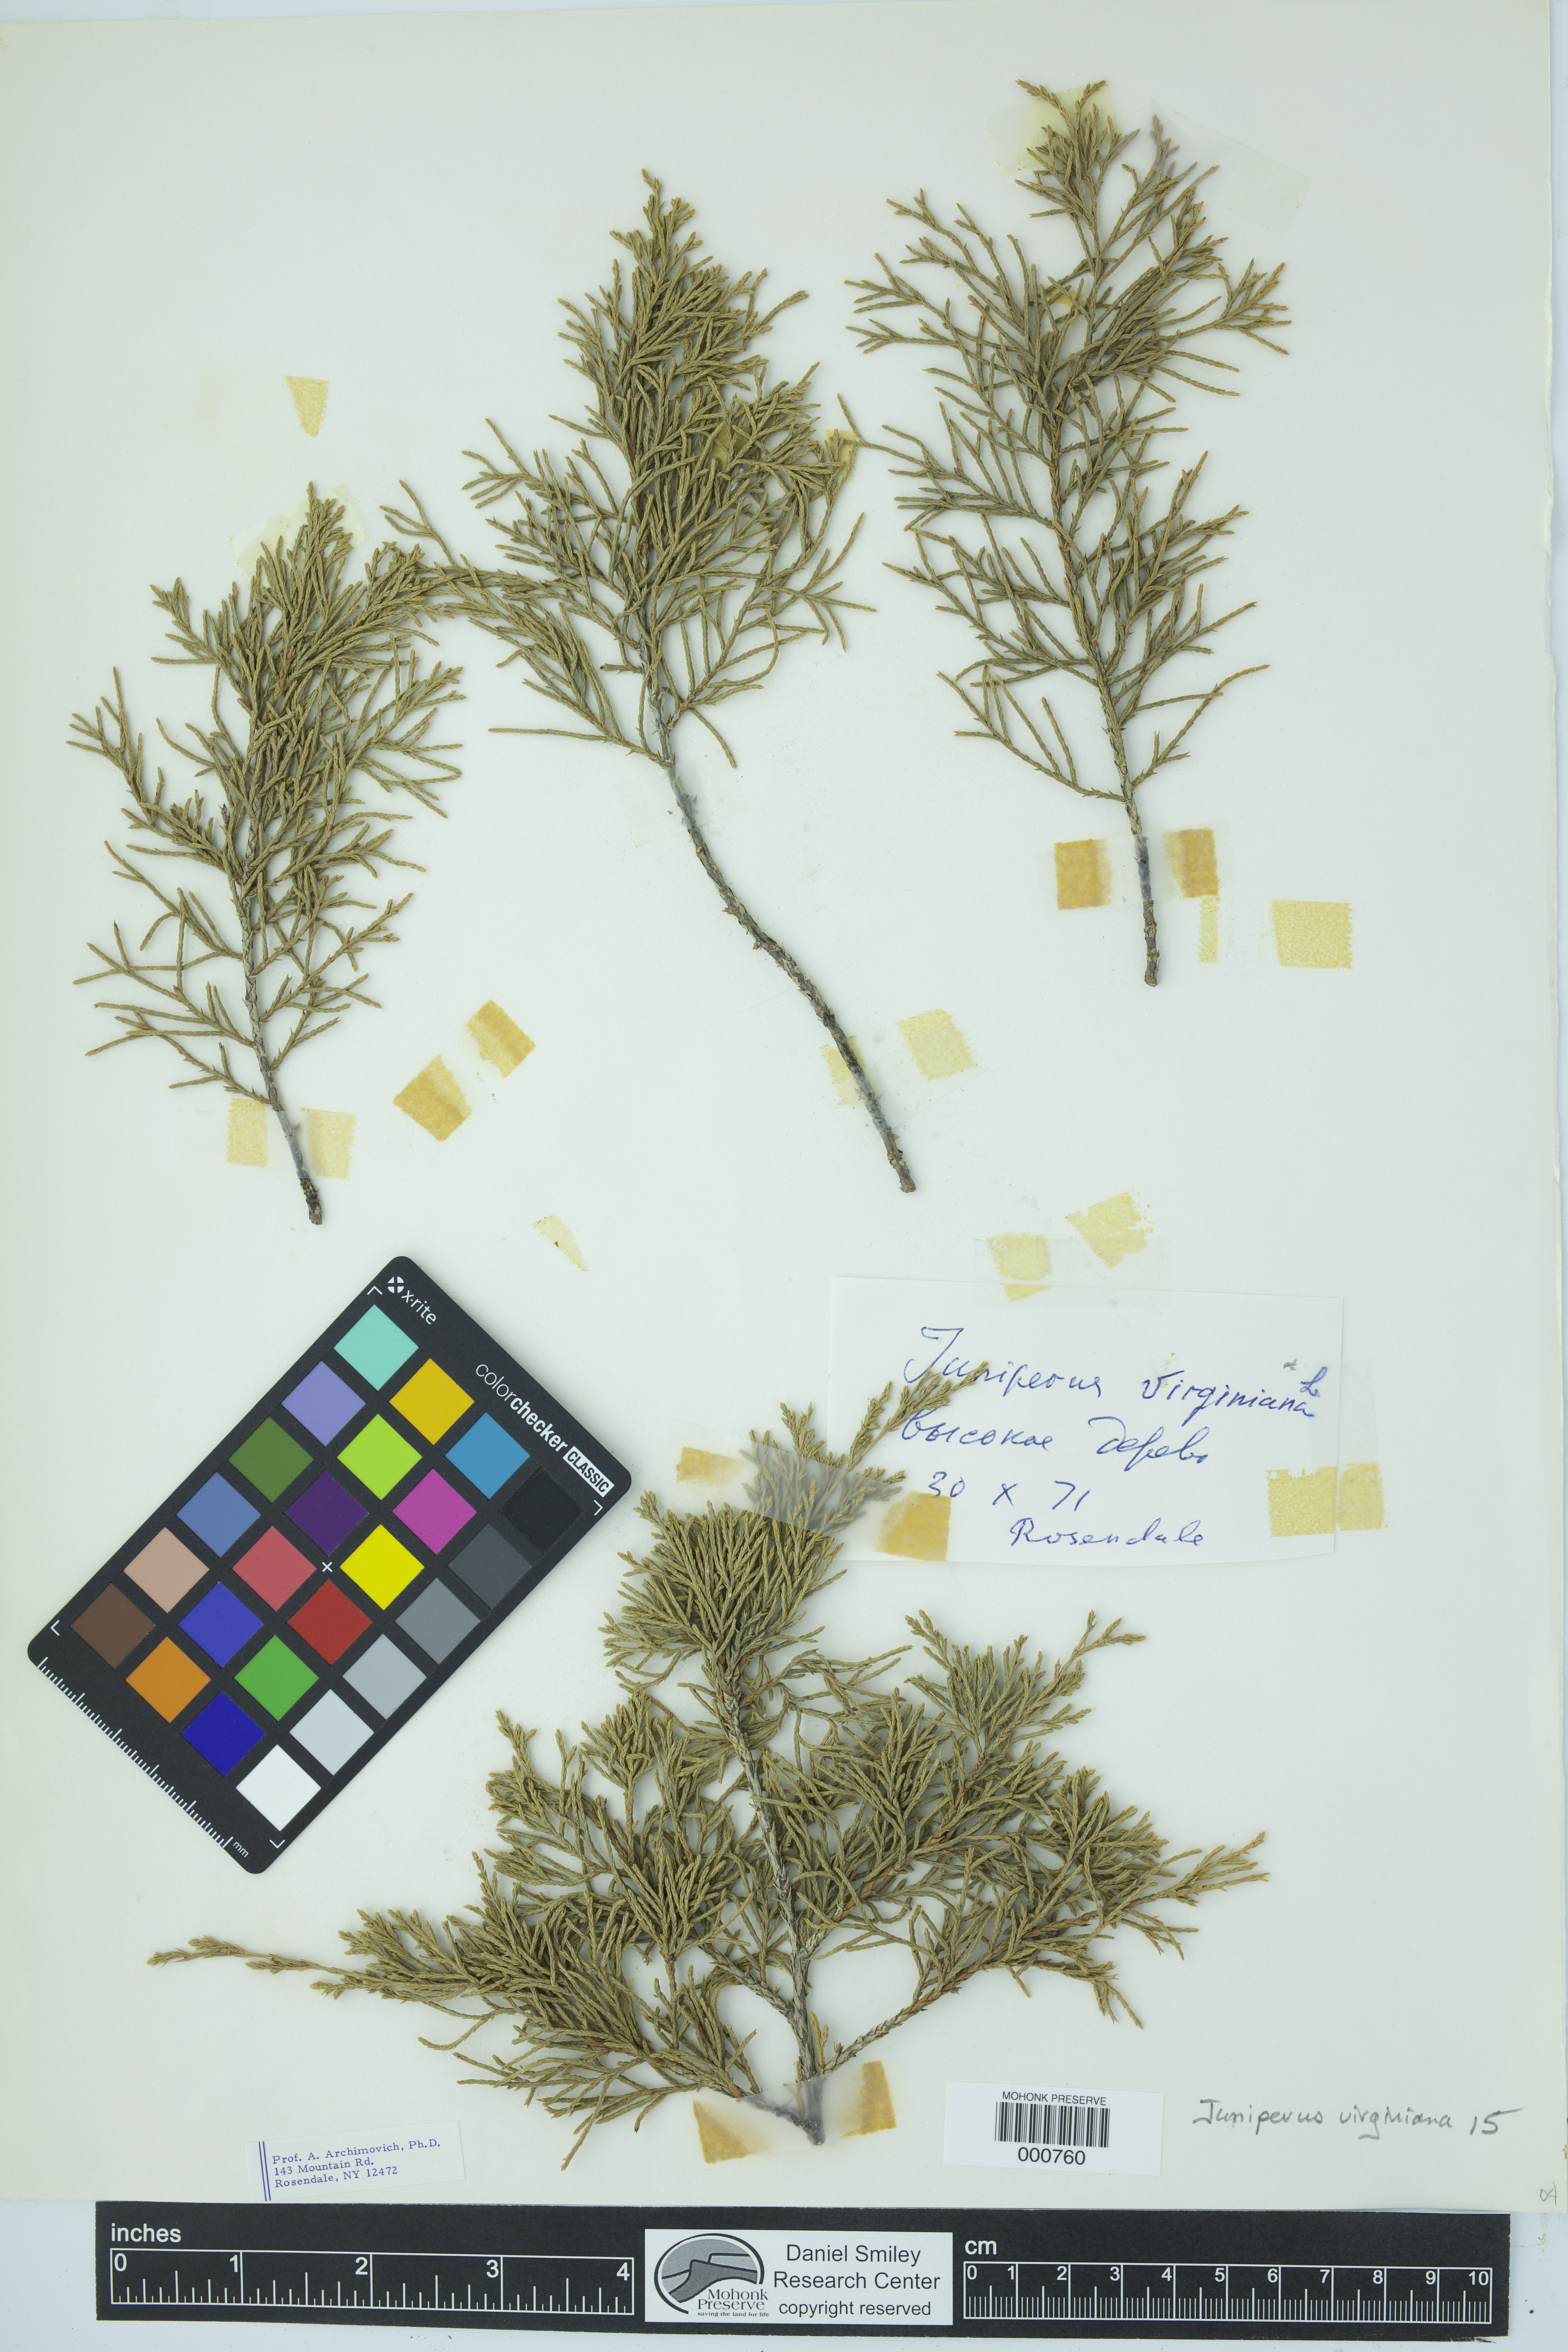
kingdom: Plantae
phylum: Tracheophyta
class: Pinopsida
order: Pinales
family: Cupressaceae
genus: Juniperus
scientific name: Juniperus virginiana
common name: Red juniper
